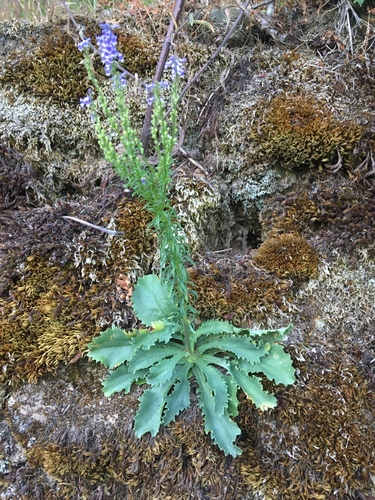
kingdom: Plantae
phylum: Tracheophyta
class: Magnoliopsida
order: Lamiales
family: Plantaginaceae
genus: Anarrhinum
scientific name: Anarrhinum bellidifolium
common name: Daisy-leaved toadflax
